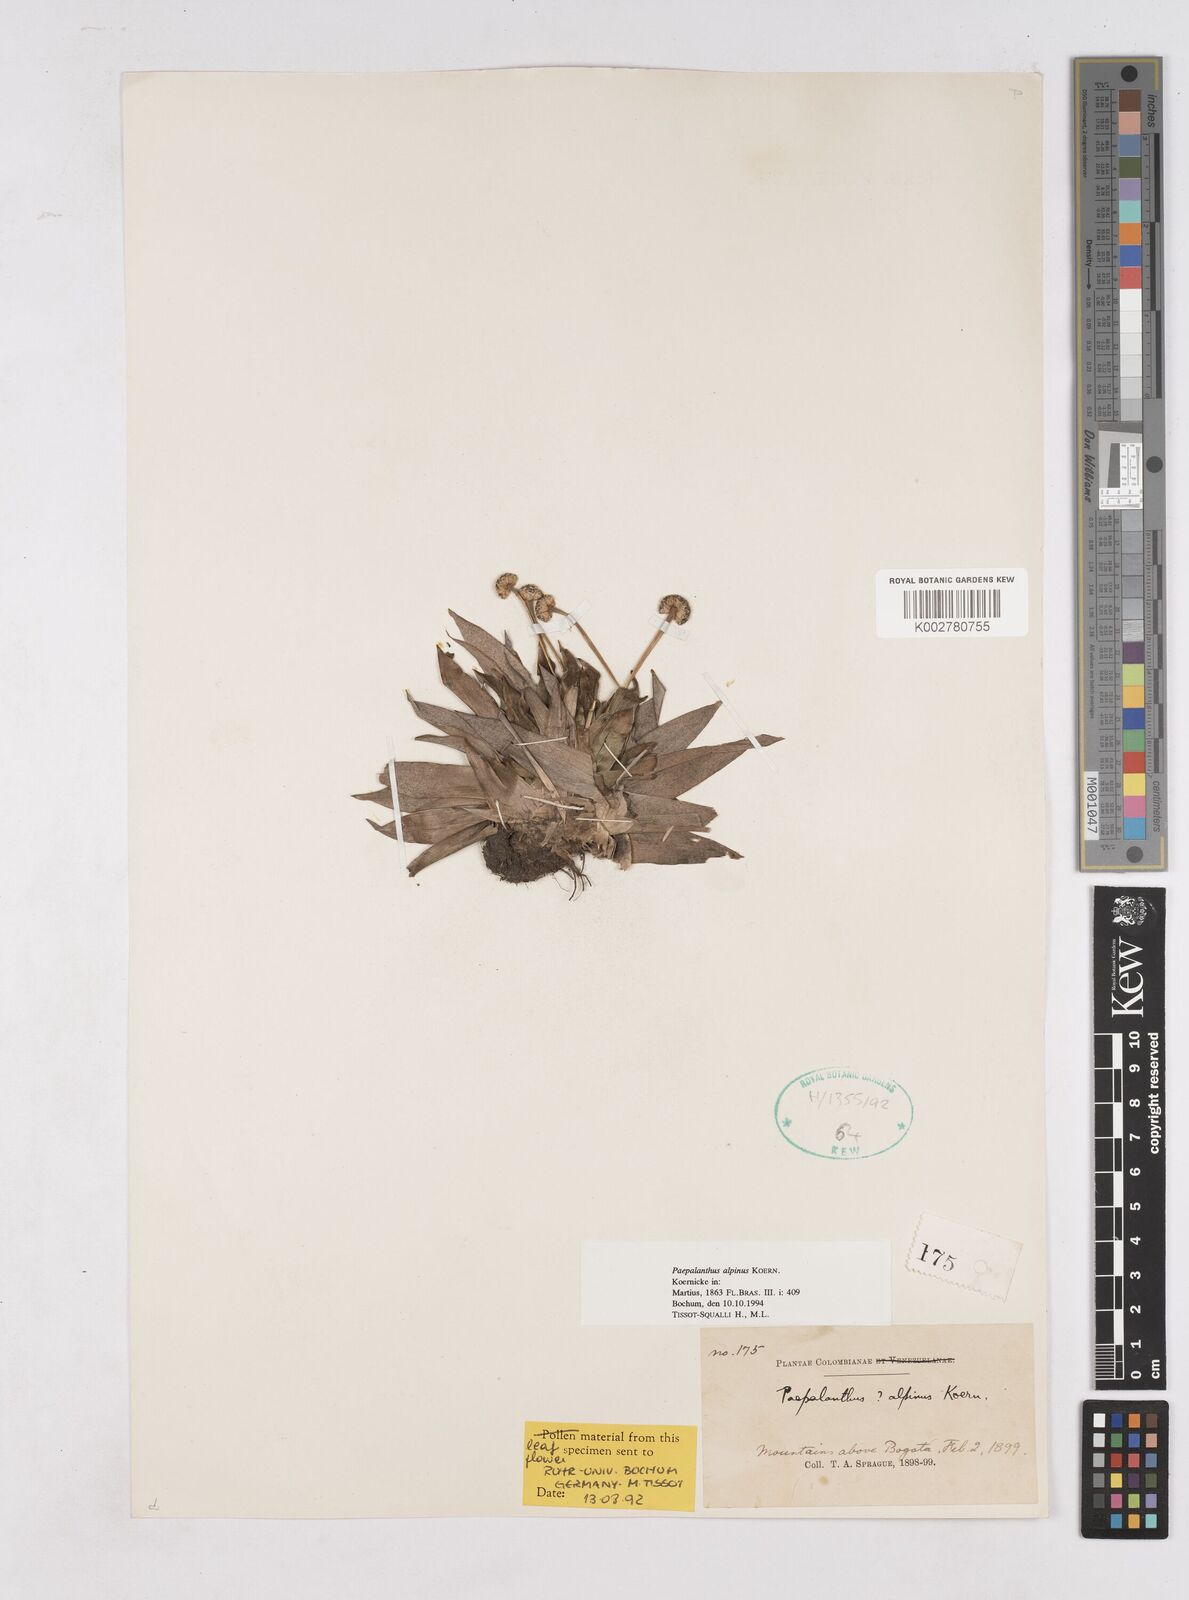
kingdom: Plantae
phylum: Tracheophyta
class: Liliopsida
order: Poales
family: Eriocaulaceae
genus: Paepalanthus
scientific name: Paepalanthus alpinus
